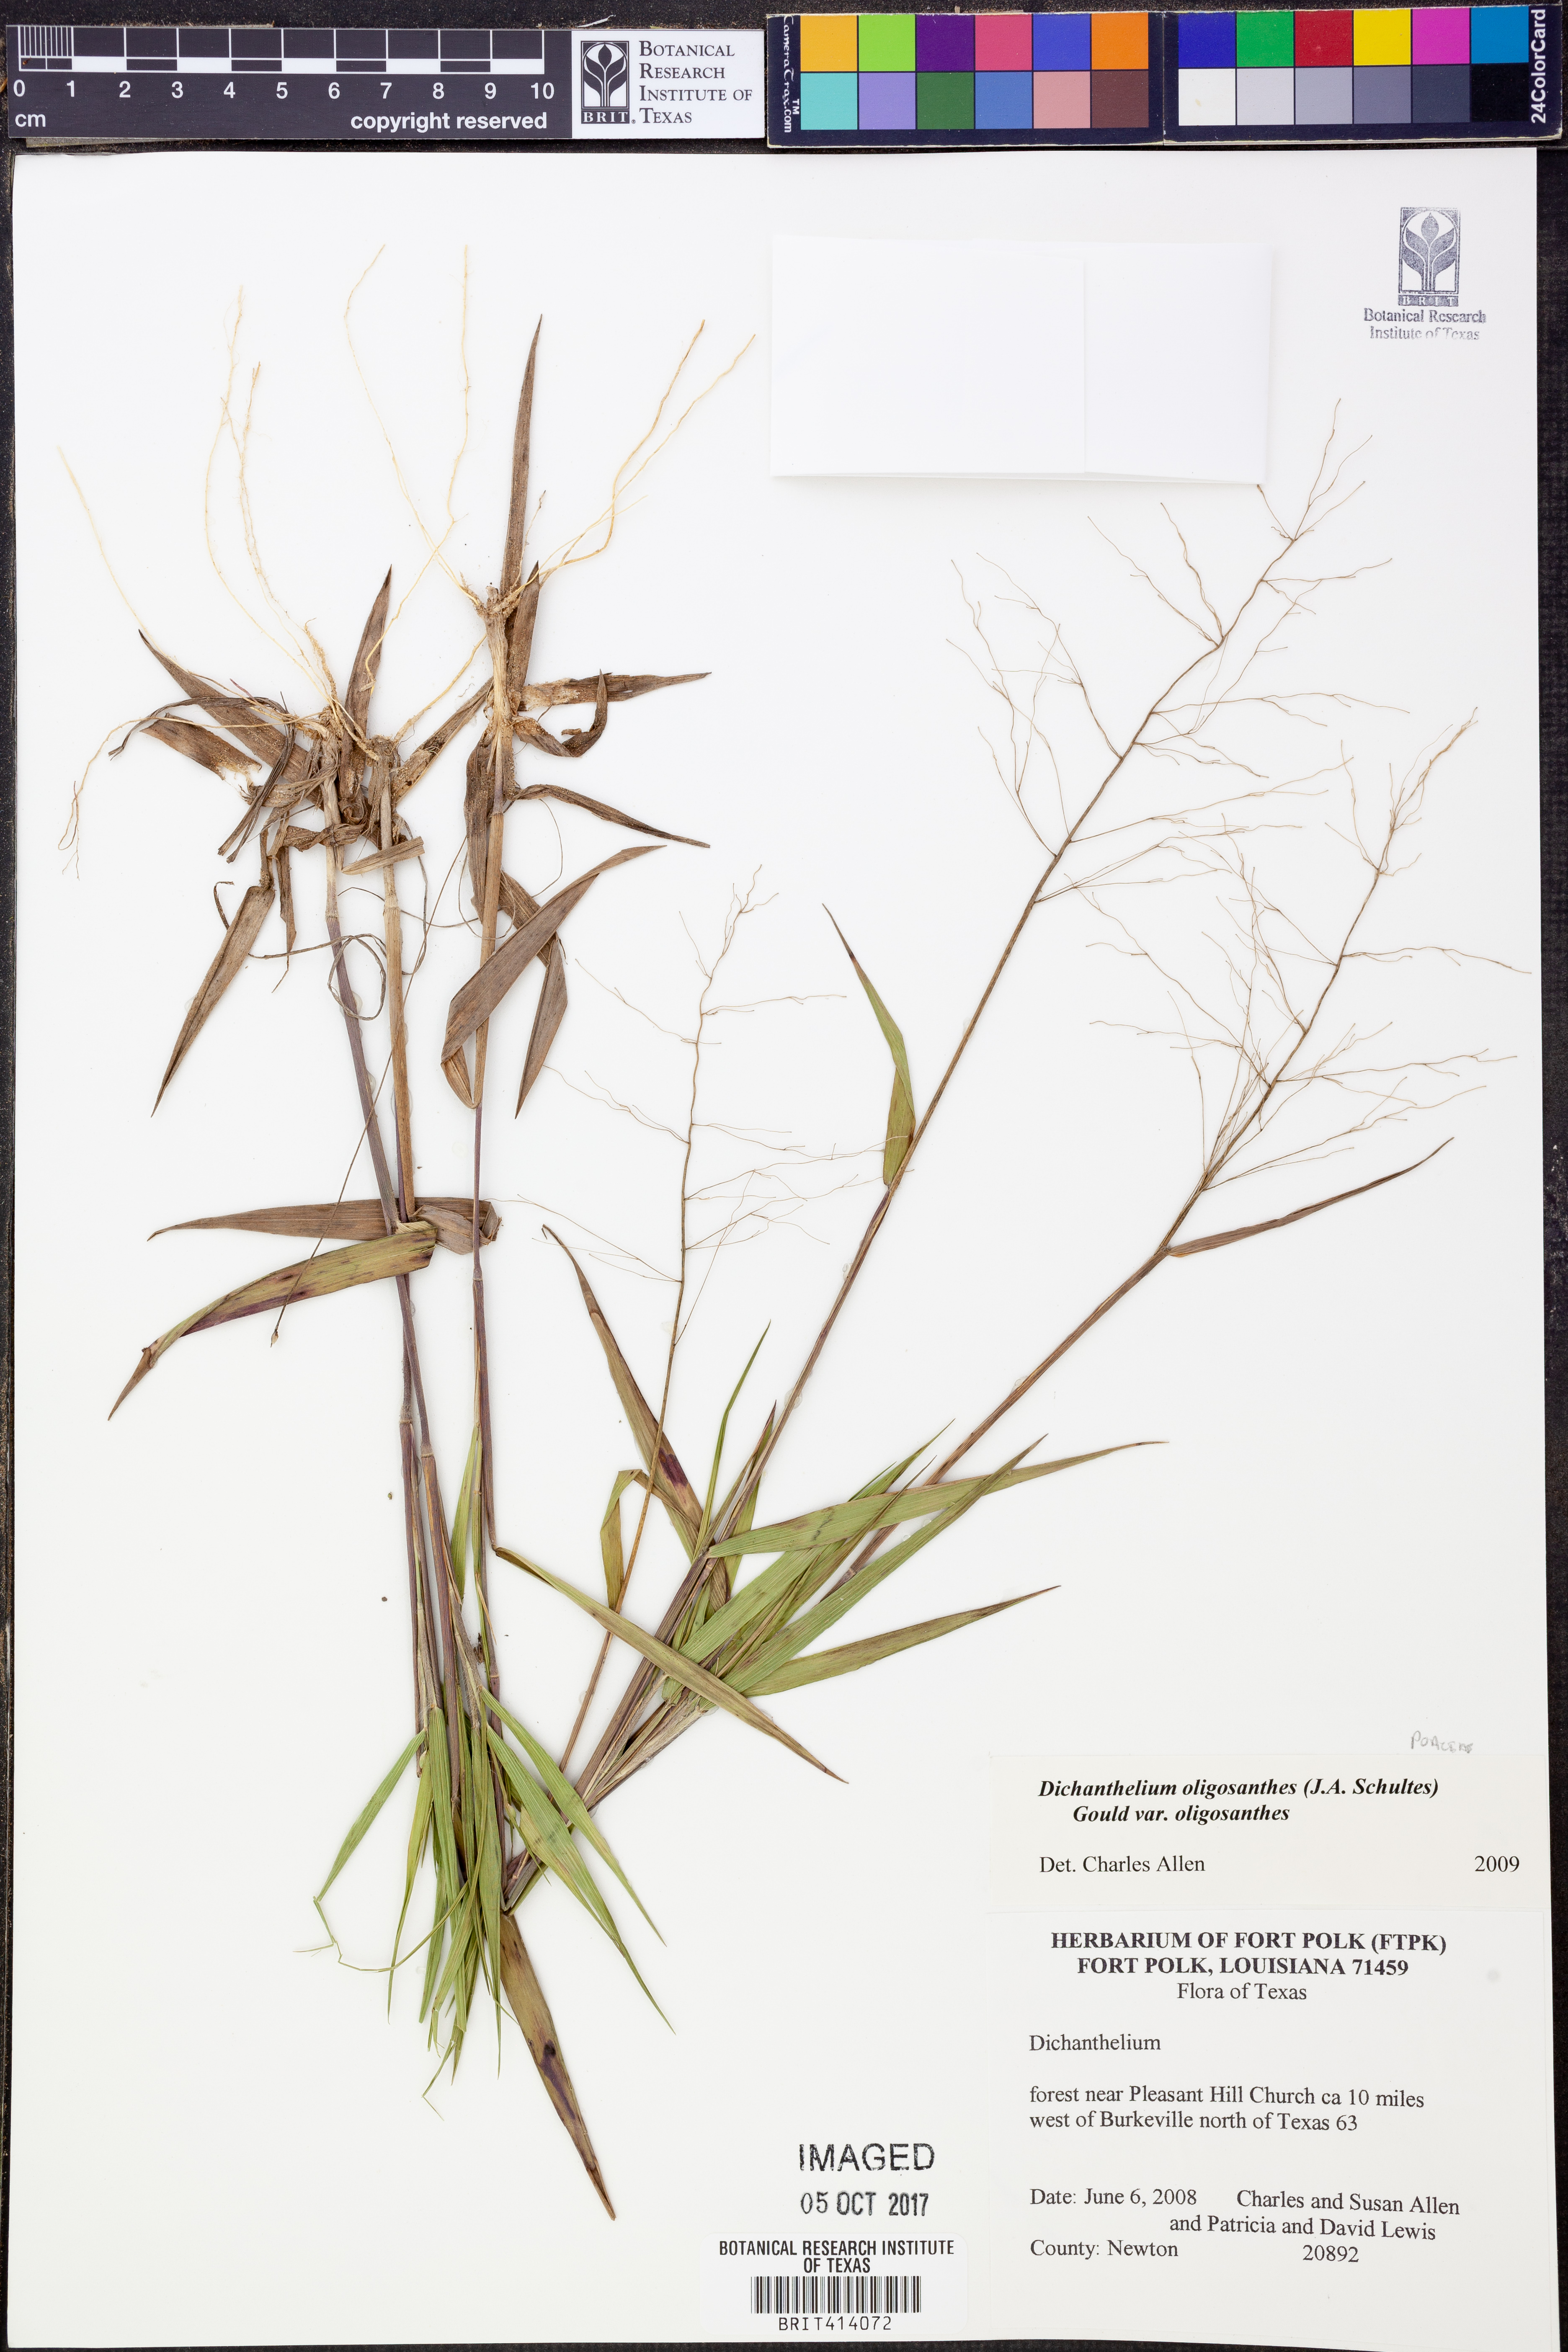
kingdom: Plantae
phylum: Tracheophyta
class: Liliopsida
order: Poales
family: Poaceae
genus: Dichanthelium
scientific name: Dichanthelium oligosanthes
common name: Few-anther obscuregrass
